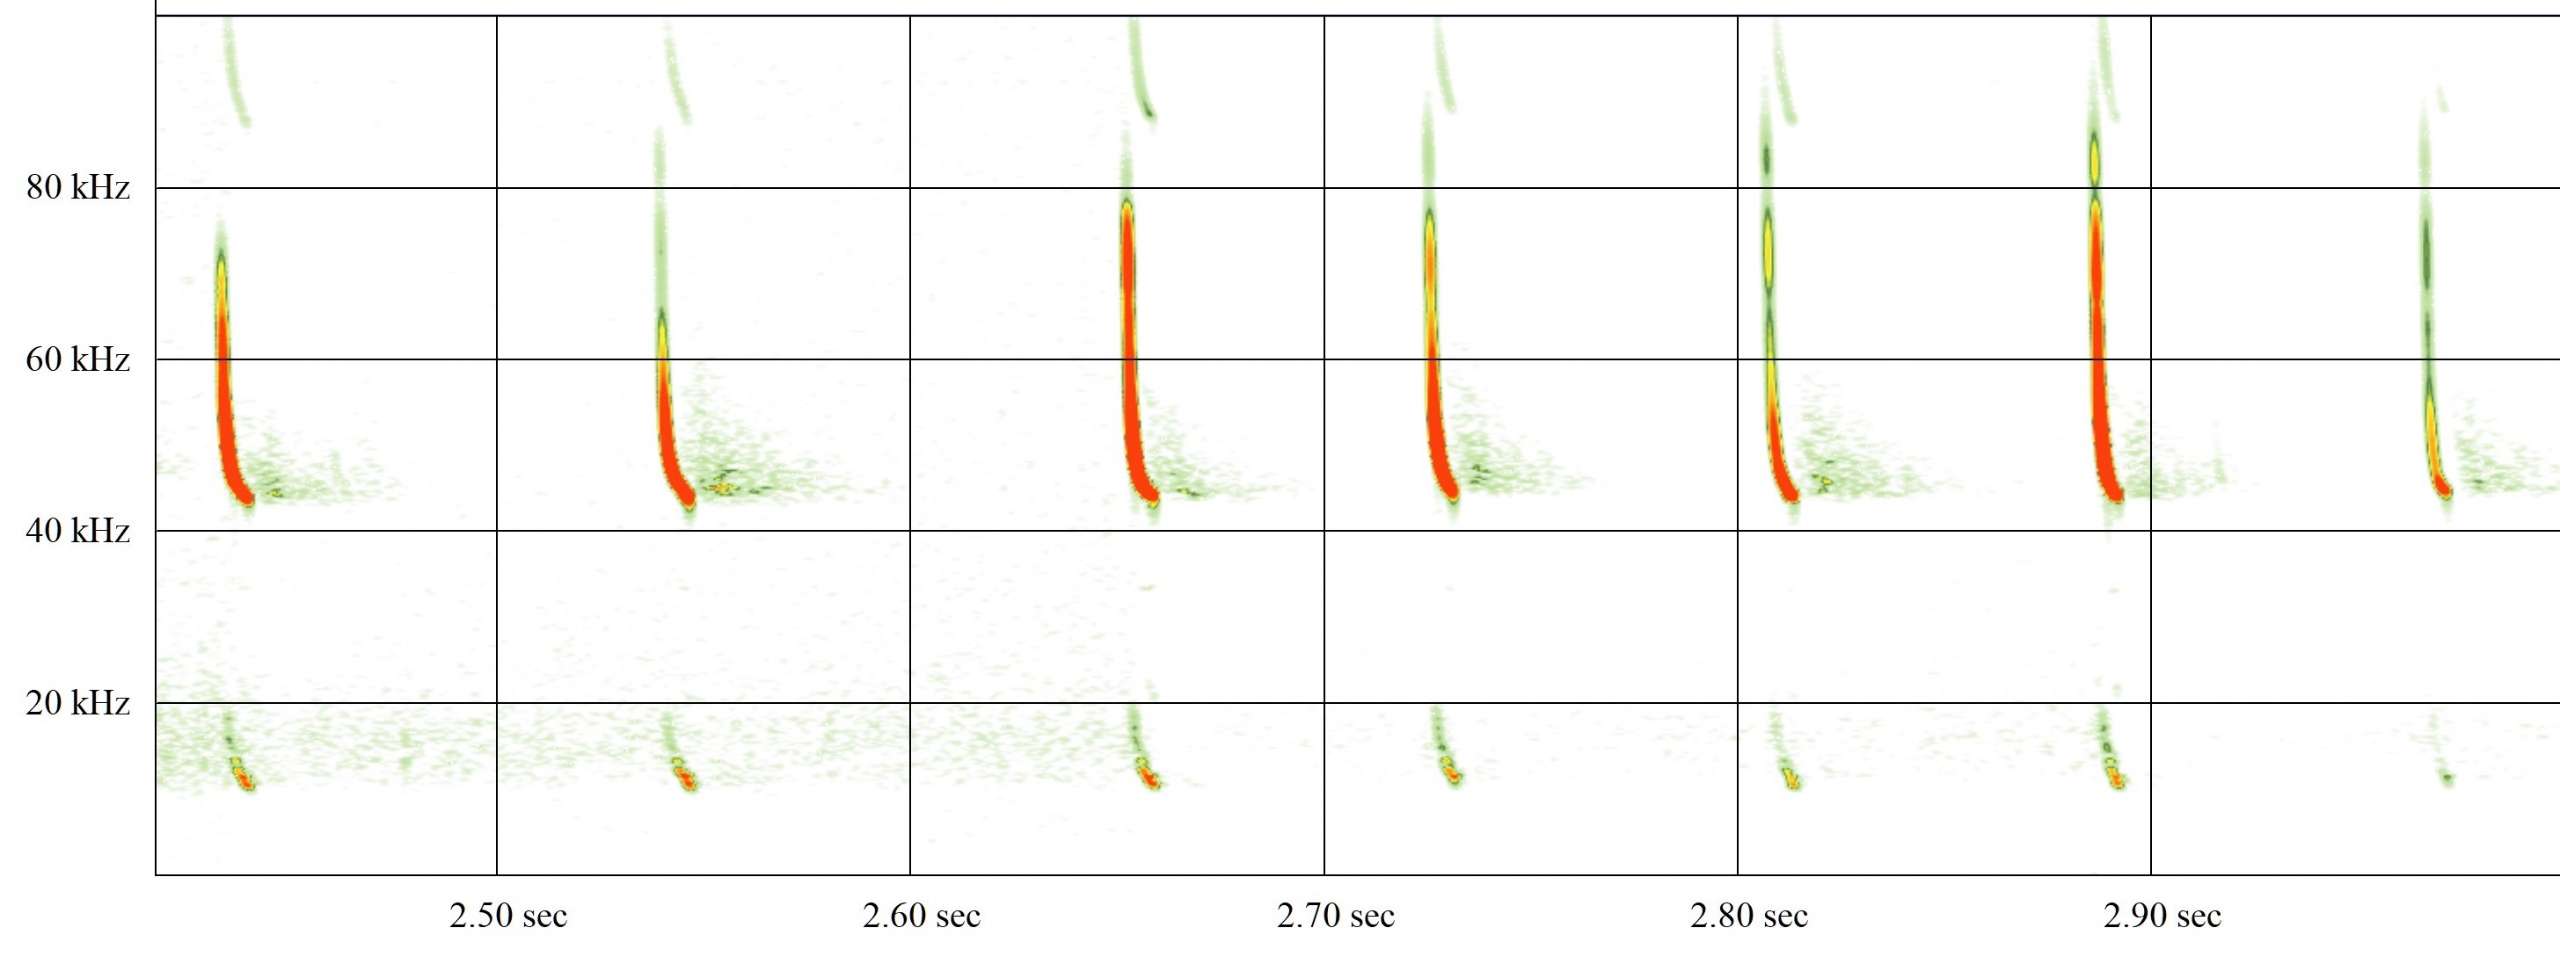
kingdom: Animalia
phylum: Chordata
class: Mammalia
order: Chiroptera
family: Vespertilionidae
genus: Pipistrellus
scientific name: Pipistrellus nathusii
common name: Troldflagermus
